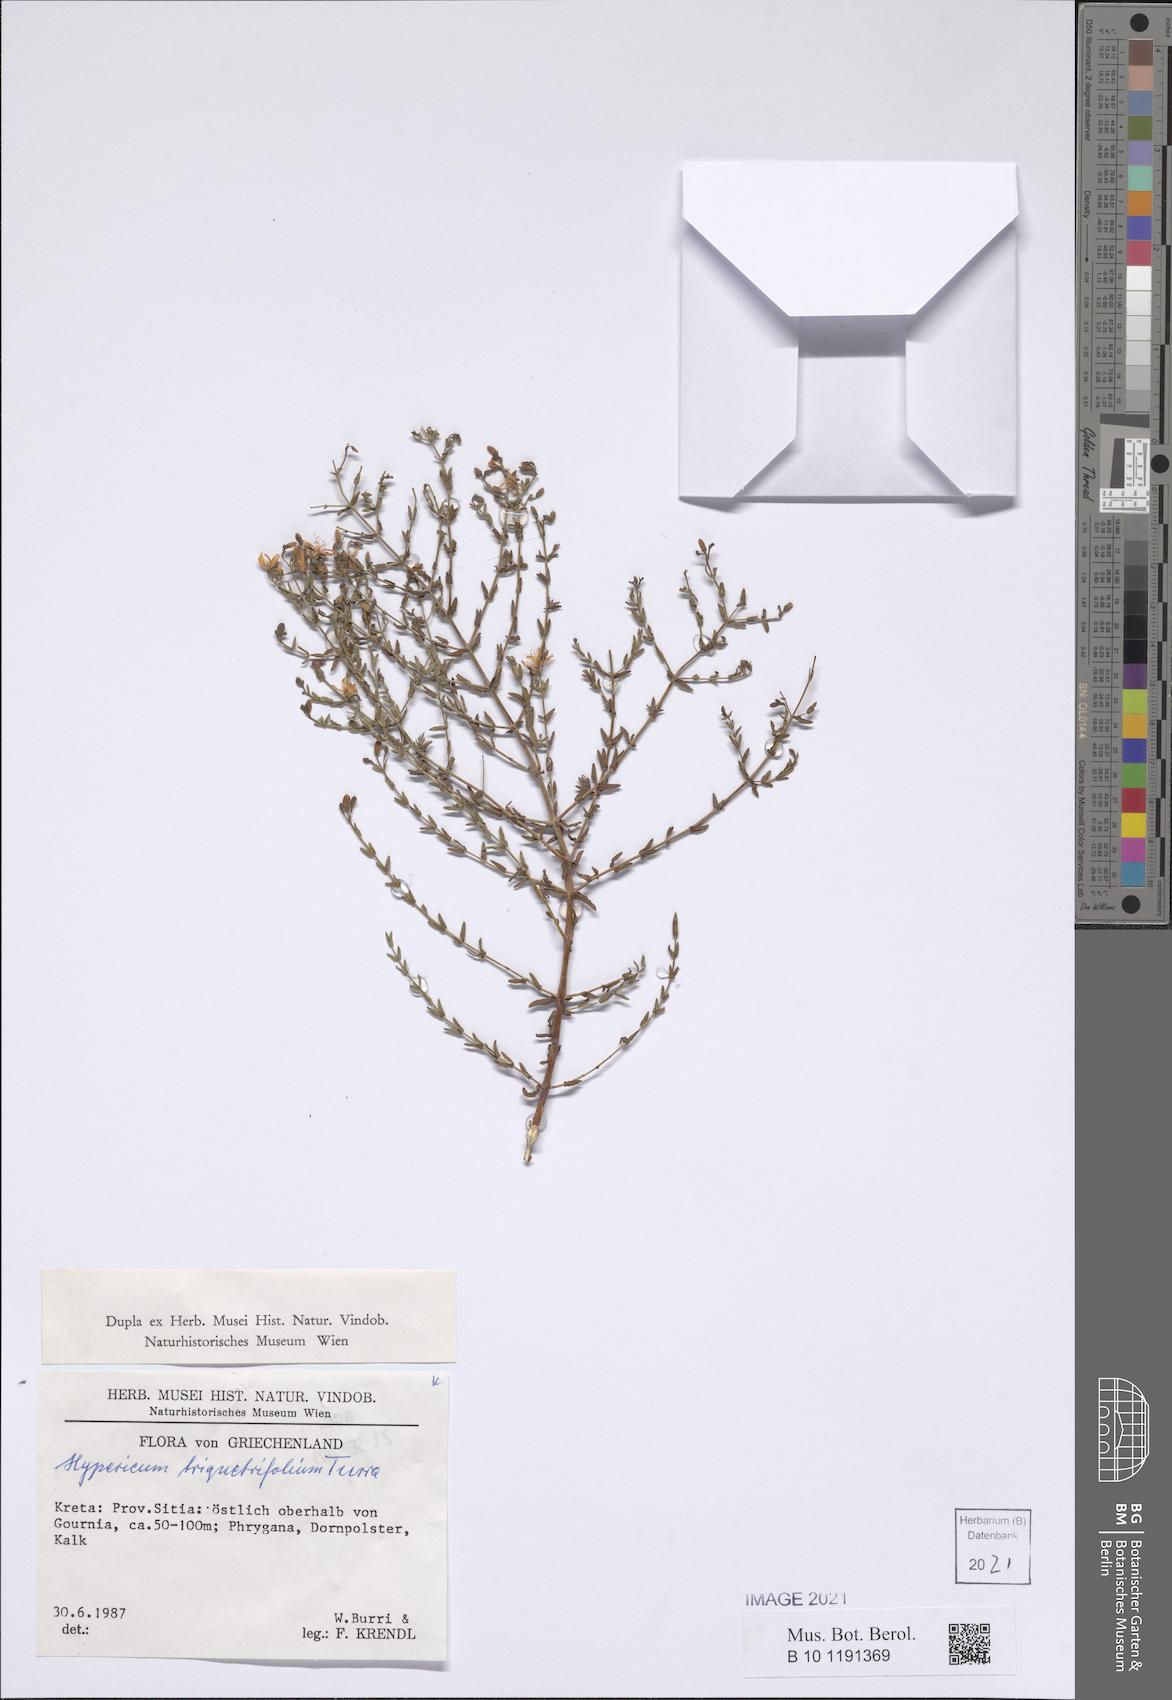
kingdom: Plantae
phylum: Tracheophyta
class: Magnoliopsida
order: Malpighiales
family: Hypericaceae
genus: Hypericum
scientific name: Hypericum triquetrifolium
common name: Tangled hypericum
